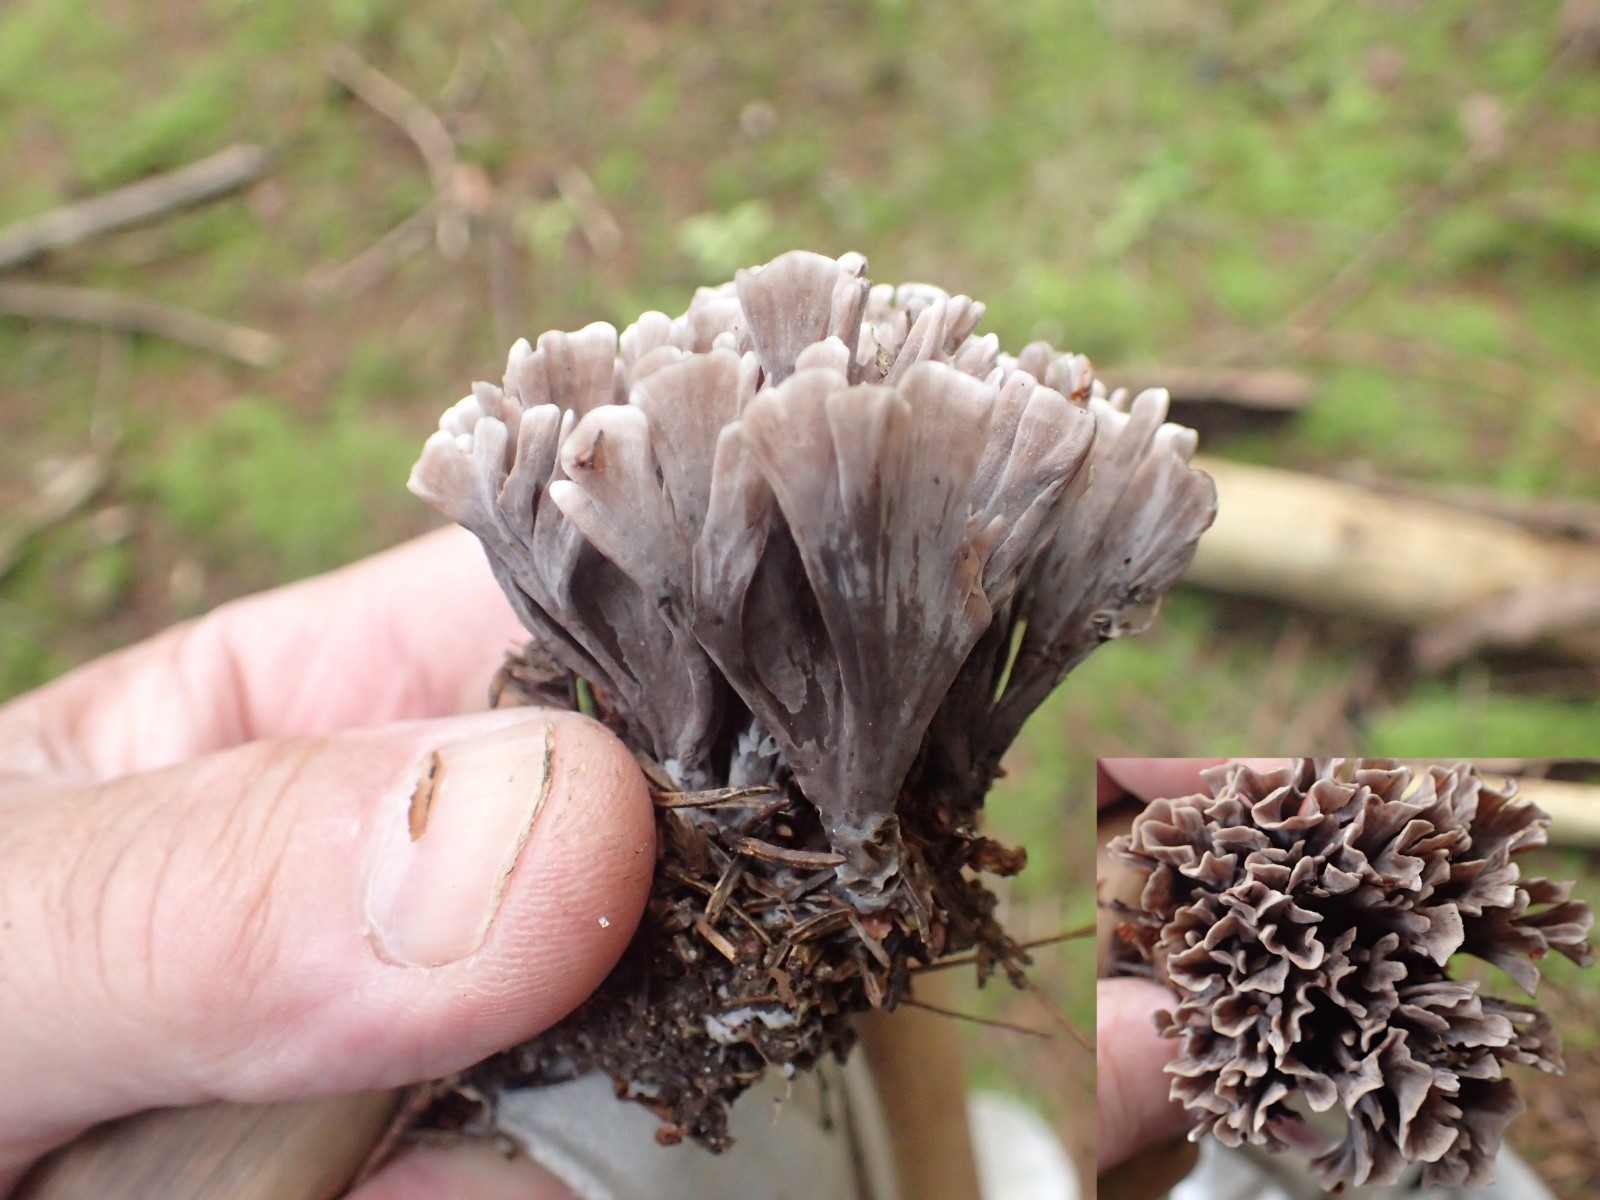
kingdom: Fungi
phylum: Basidiomycota
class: Agaricomycetes
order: Thelephorales
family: Thelephoraceae
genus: Thelephora
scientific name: Thelephora palmata
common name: grenet frynsesvamp
